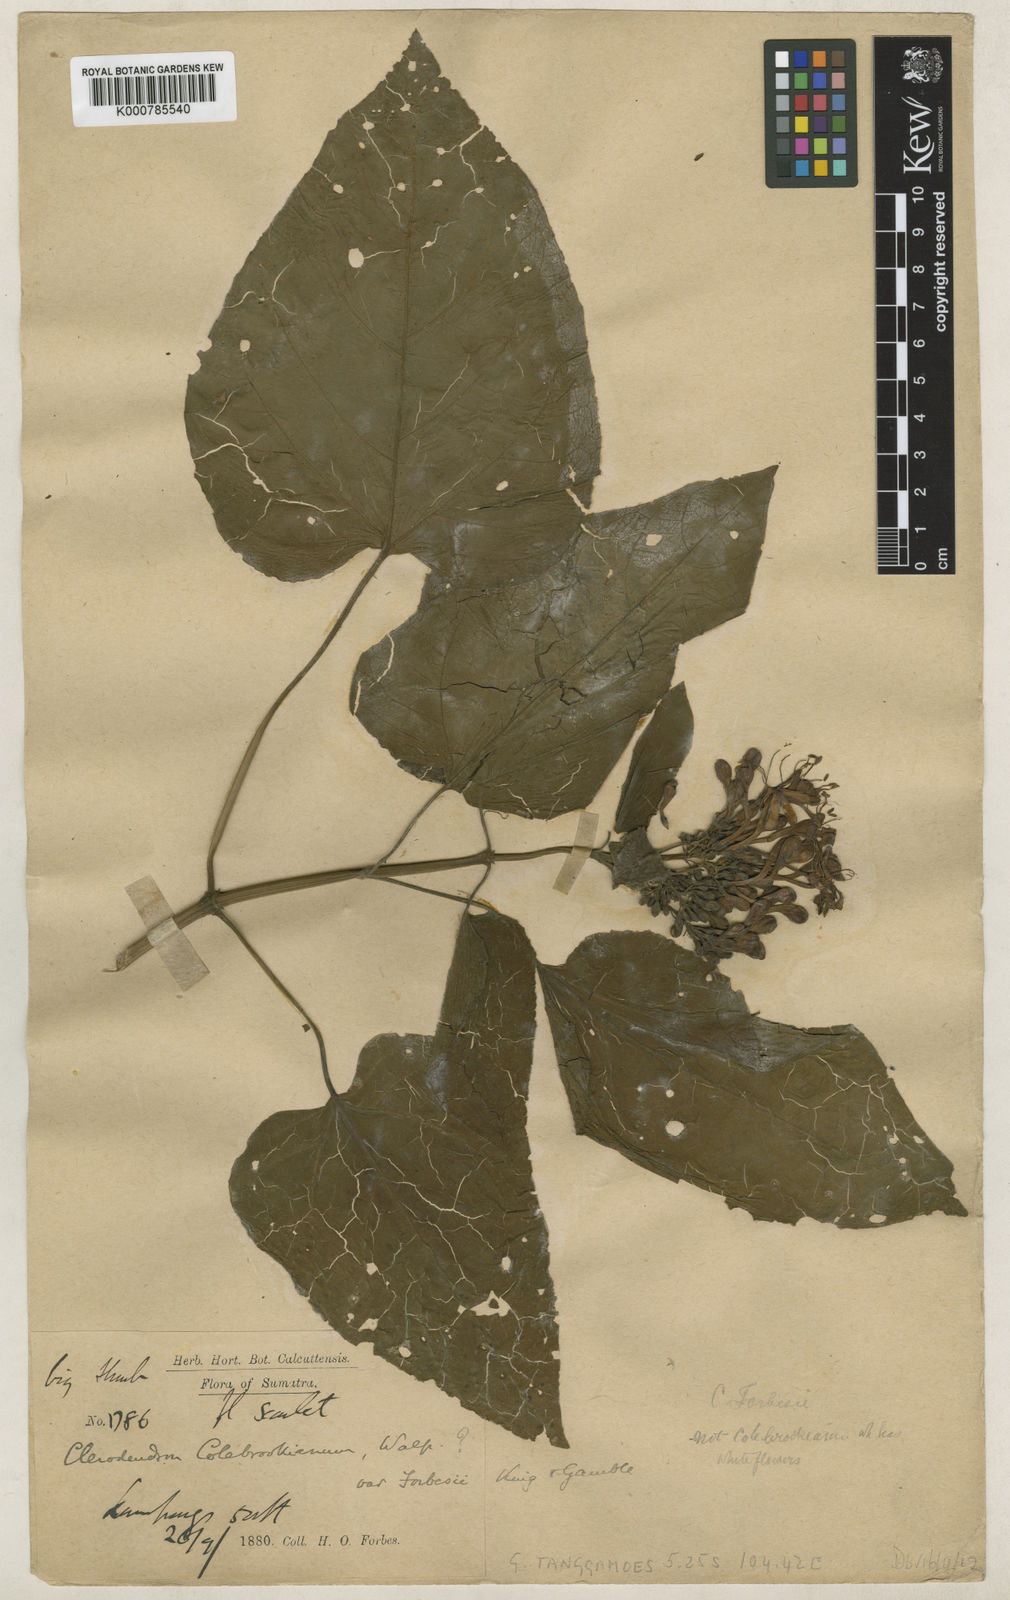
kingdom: Plantae
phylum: Tracheophyta
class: Magnoliopsida
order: Lamiales
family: Lamiaceae
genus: Clerodendrum
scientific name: Clerodendrum speciosissimum
